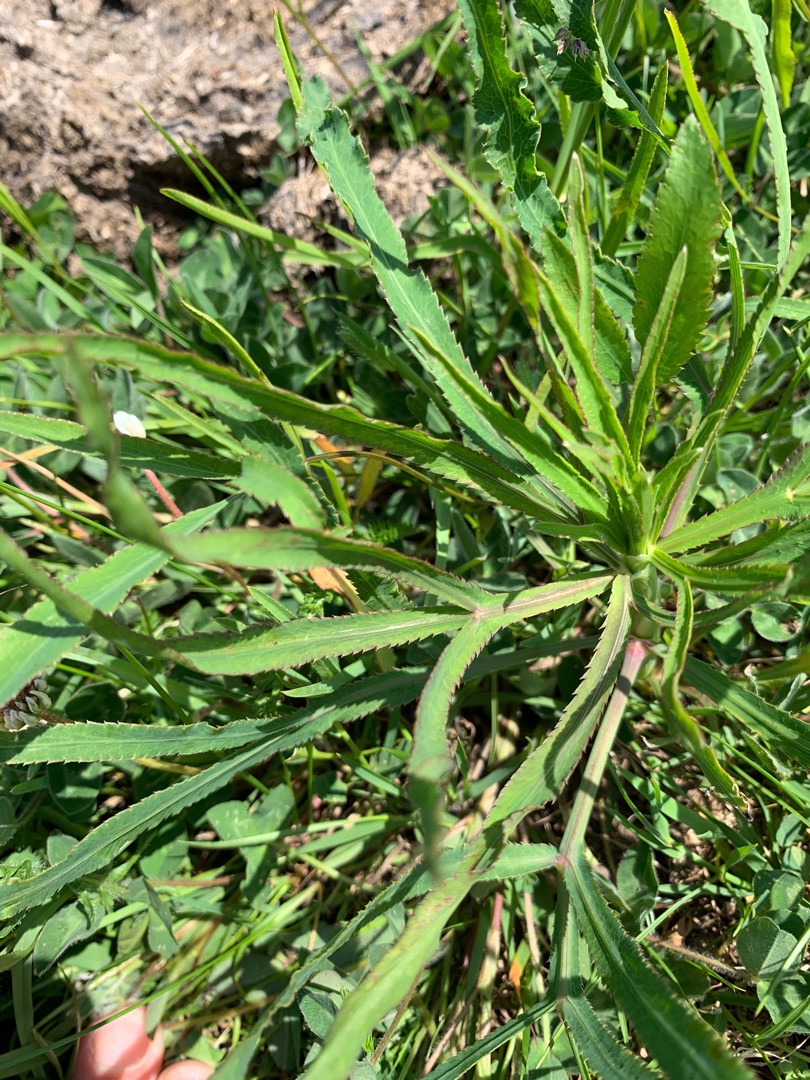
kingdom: Plantae
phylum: Tracheophyta
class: Magnoliopsida
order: Apiales
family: Apiaceae
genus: Falcaria
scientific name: Falcaria vulgaris
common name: Seglblad
